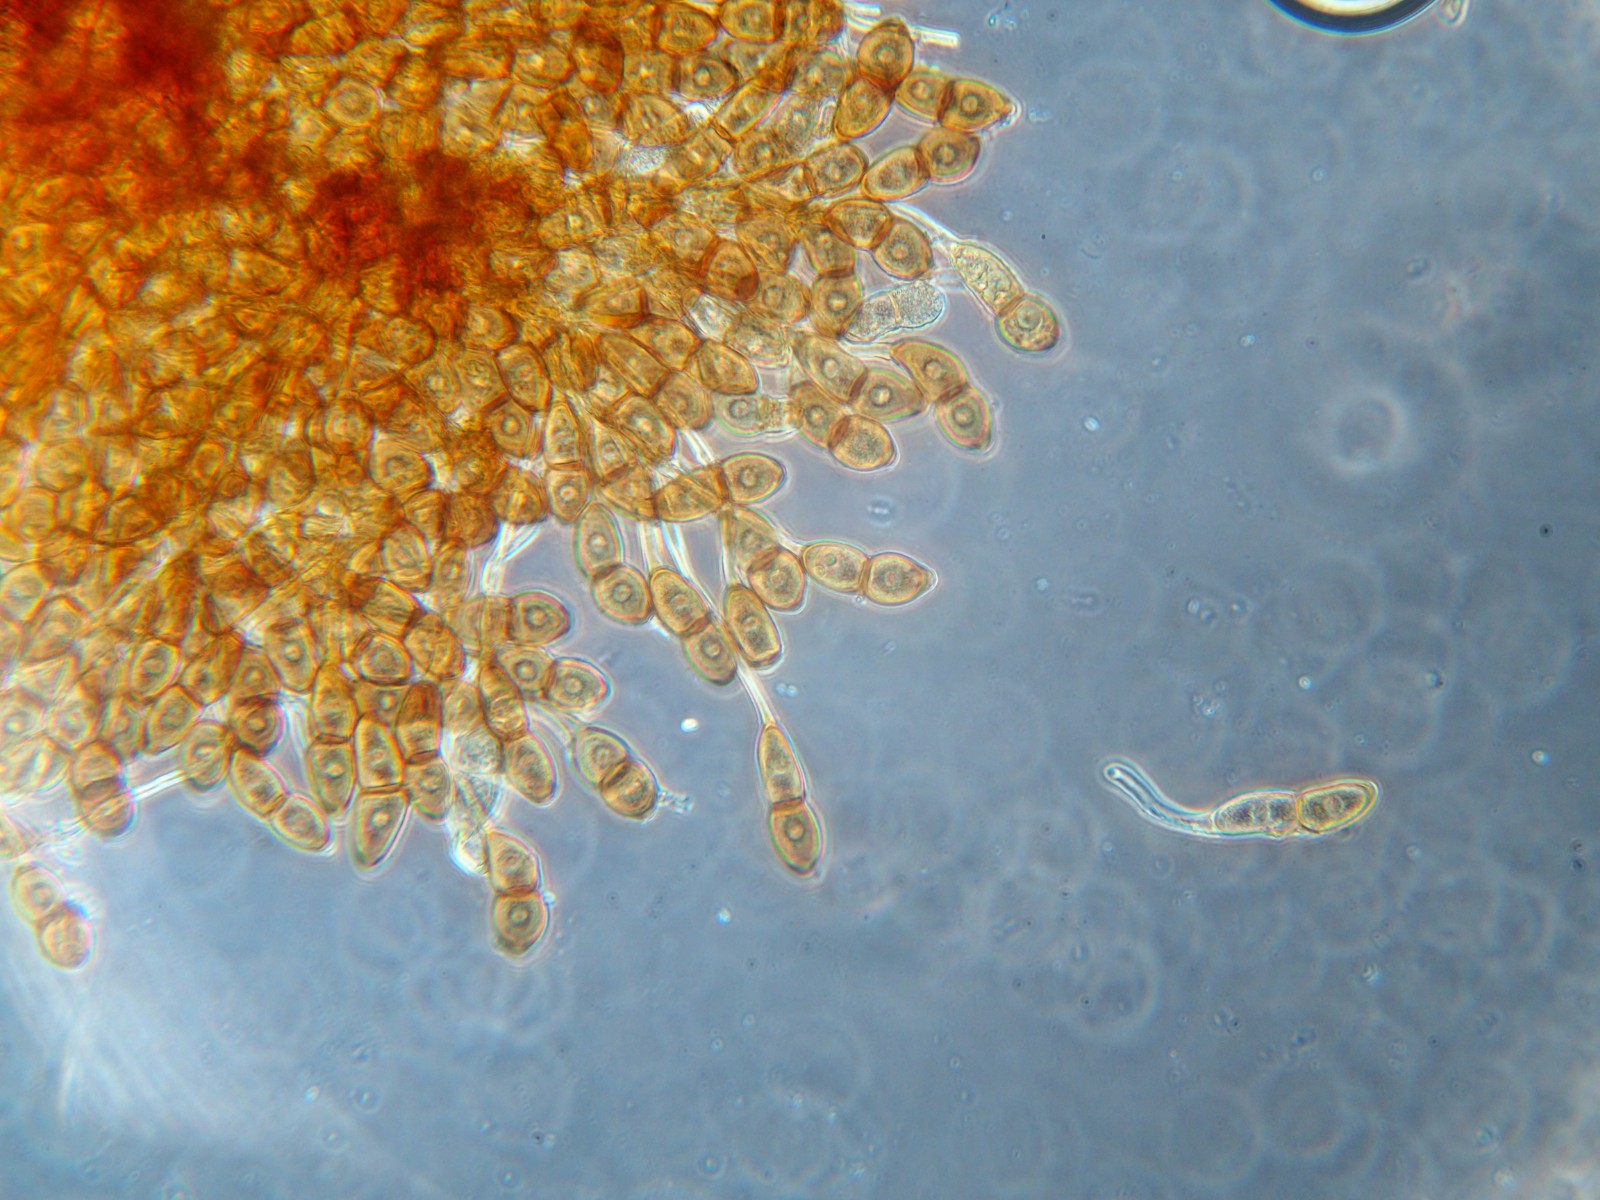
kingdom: Fungi
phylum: Basidiomycota
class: Pucciniomycetes
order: Pucciniales
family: Pucciniaceae
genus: Puccinia
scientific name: Puccinia phragmitis
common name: tagrør-tvecellerust
